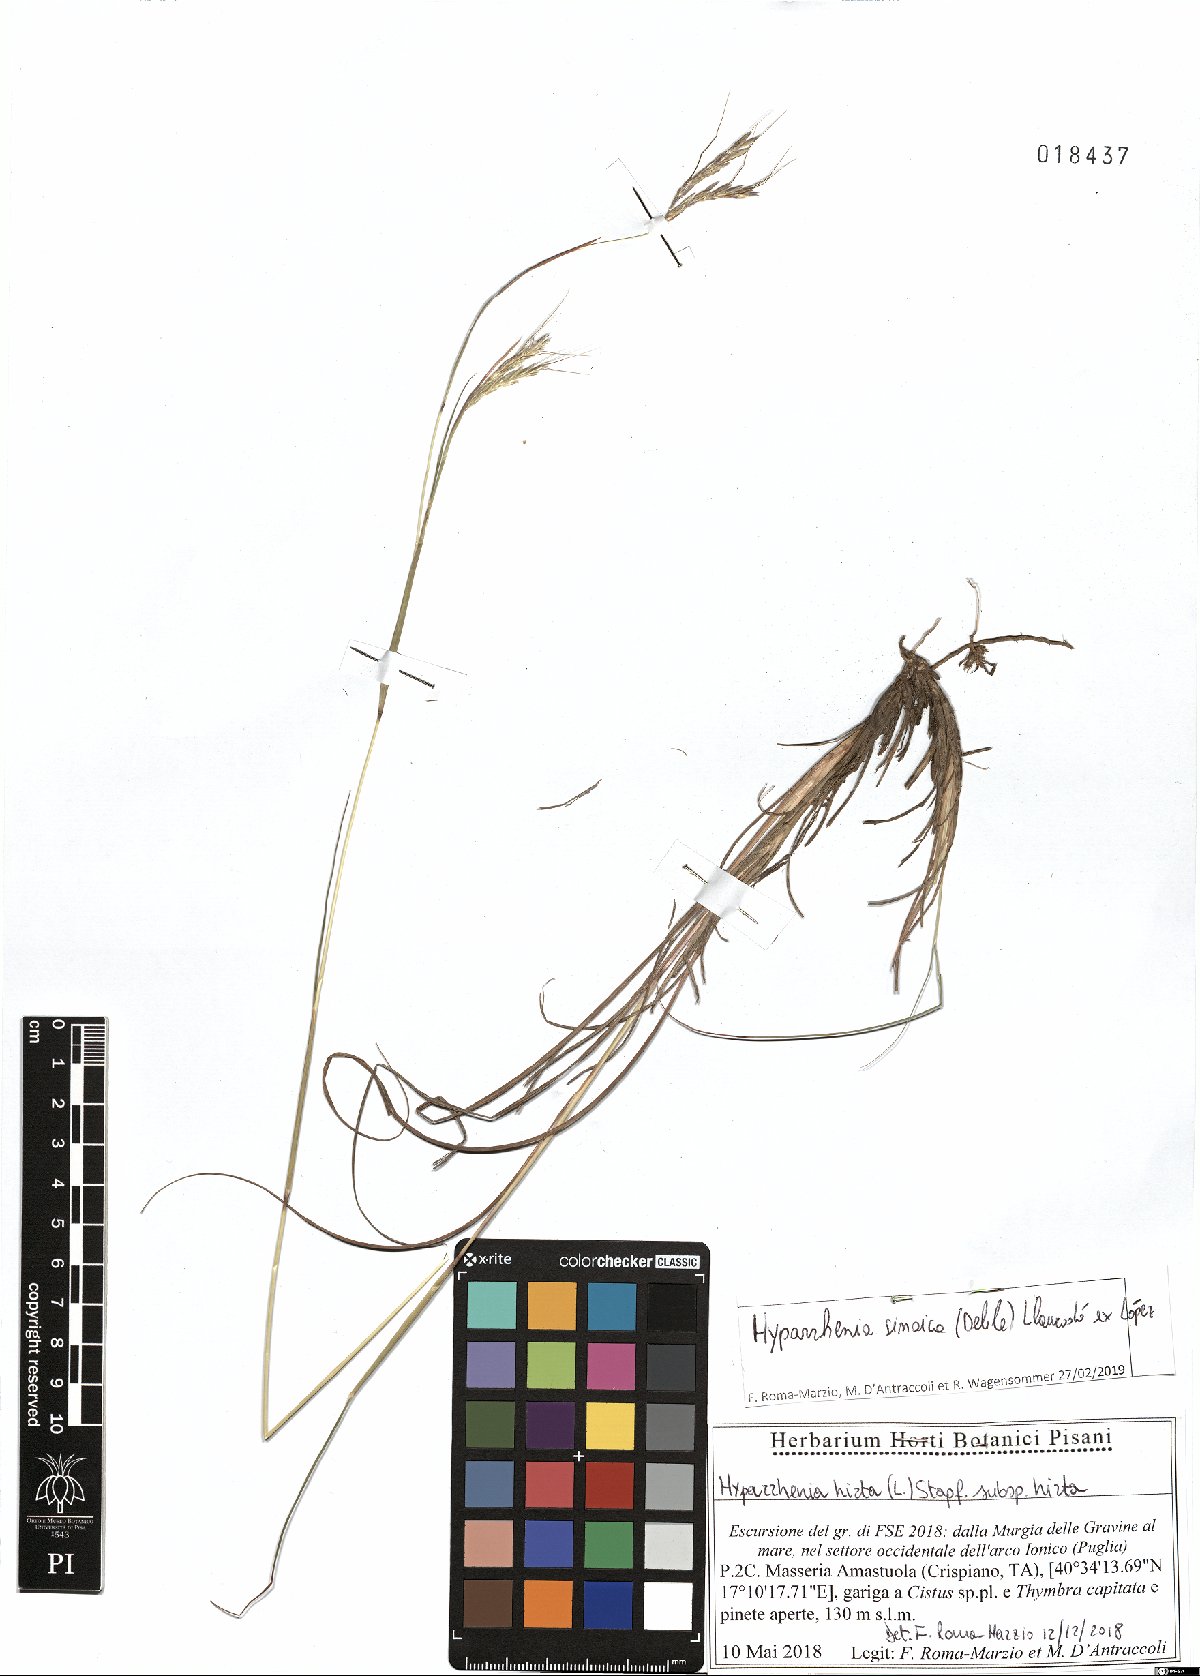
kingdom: Plantae
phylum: Tracheophyta
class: Liliopsida
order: Poales
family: Poaceae
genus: Hyparrhenia
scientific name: Hyparrhenia hirta
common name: Thatching grass
